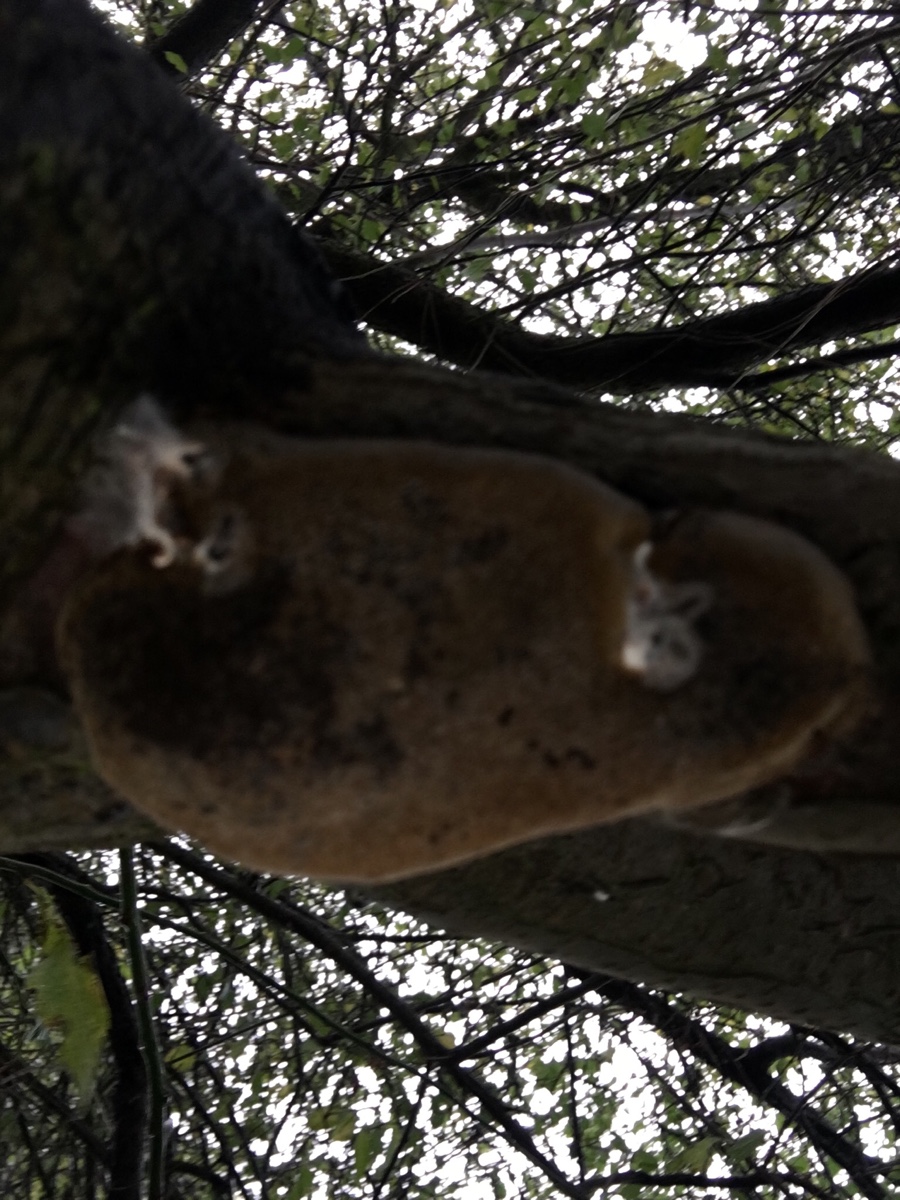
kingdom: Fungi
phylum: Basidiomycota
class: Agaricomycetes
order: Hymenochaetales
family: Hymenochaetaceae
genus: Phellinus
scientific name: Phellinus pomaceus
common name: blomme-ildporesvamp
